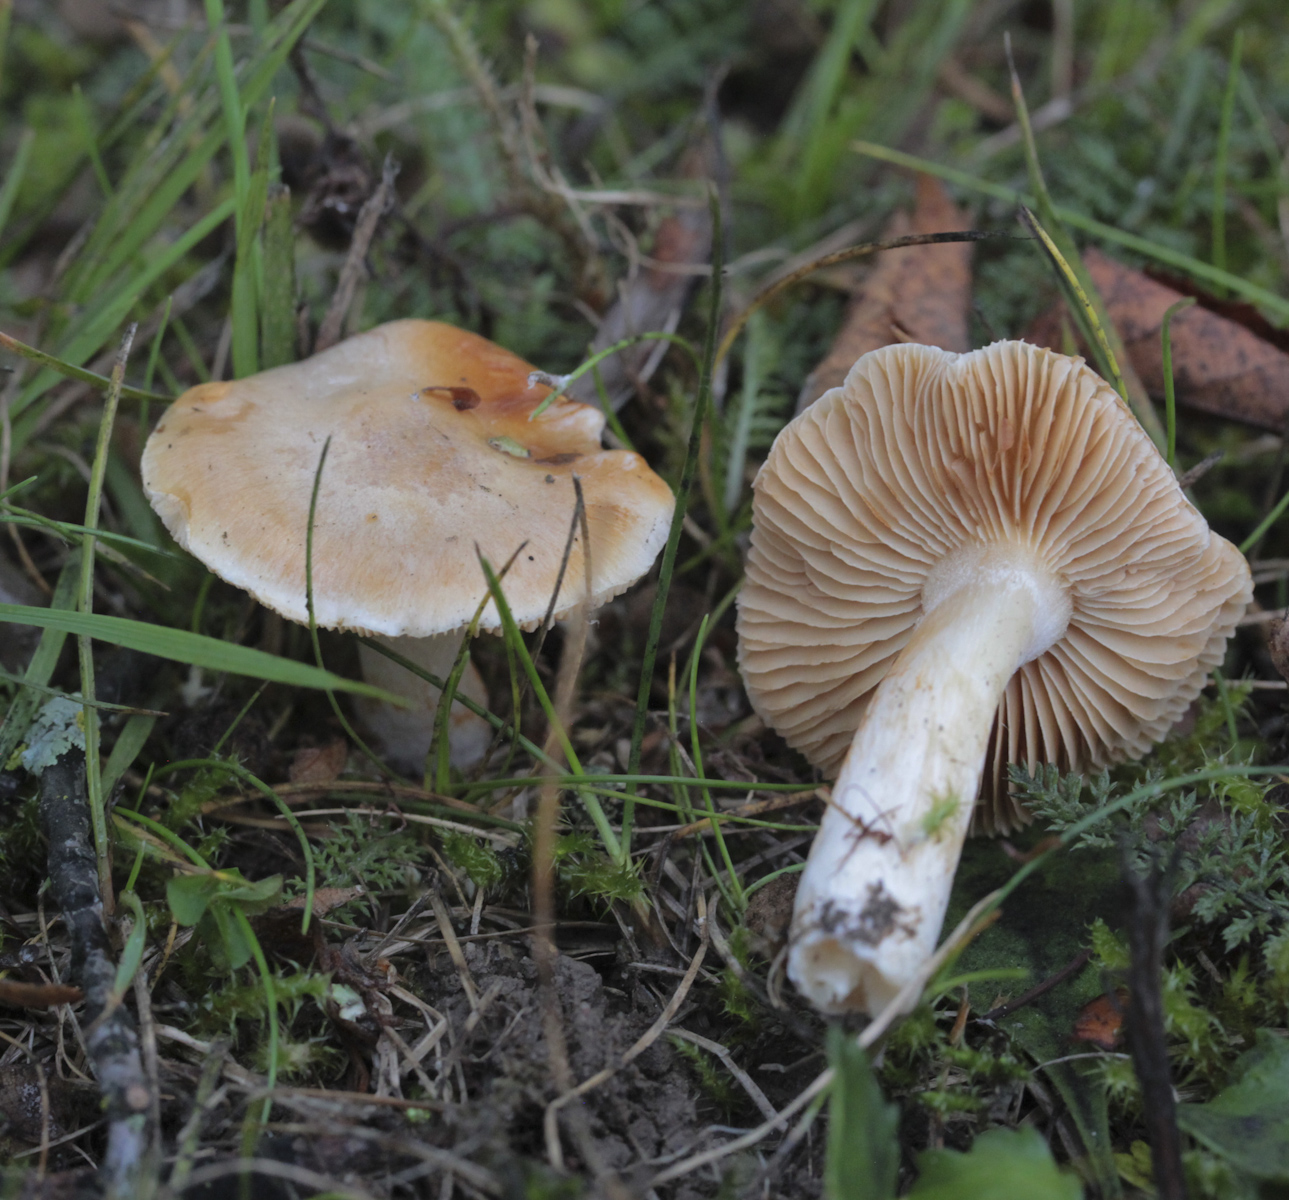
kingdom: Fungi
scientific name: Fungi
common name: Fungi
